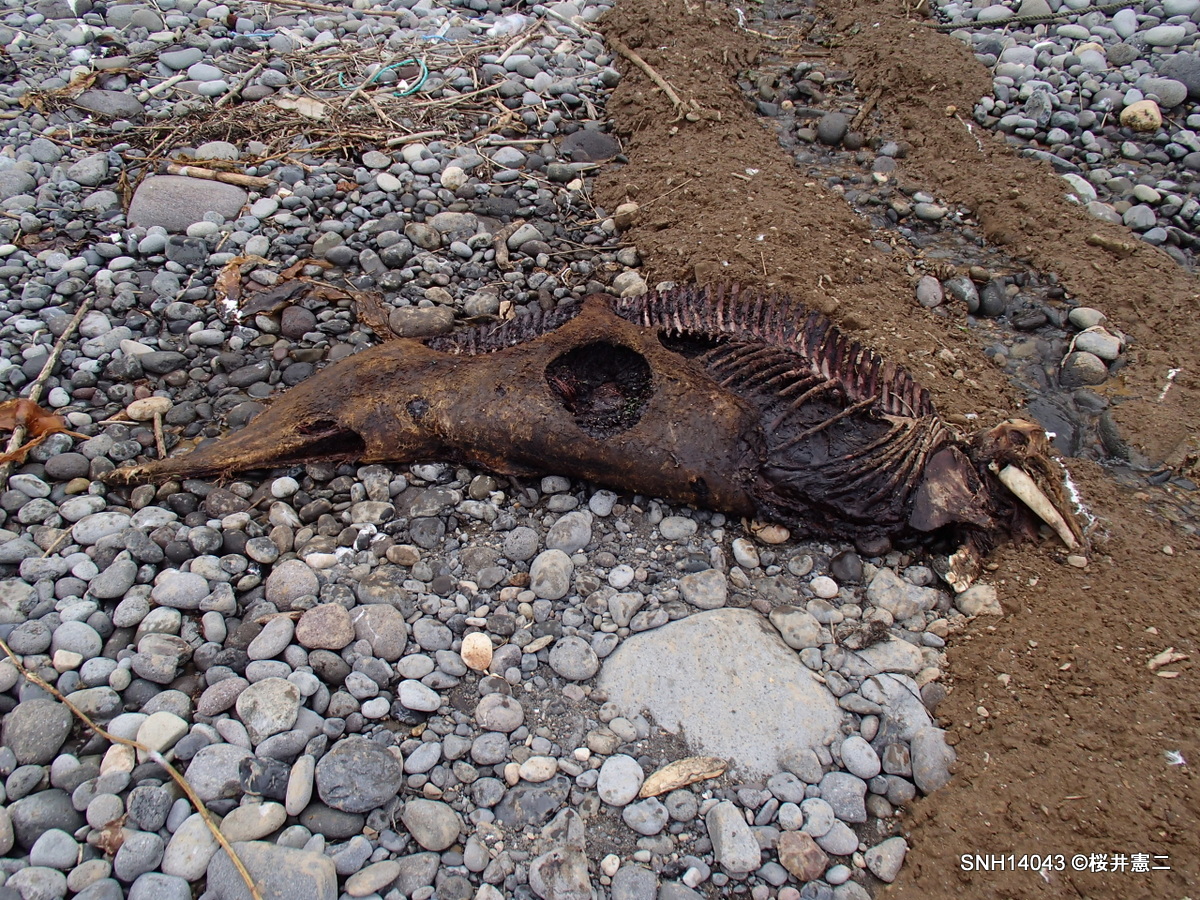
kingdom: Animalia
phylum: Chordata
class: Mammalia
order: Cetacea
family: Phocoenidae
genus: Phocoenoides
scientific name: Phocoenoides dalli
